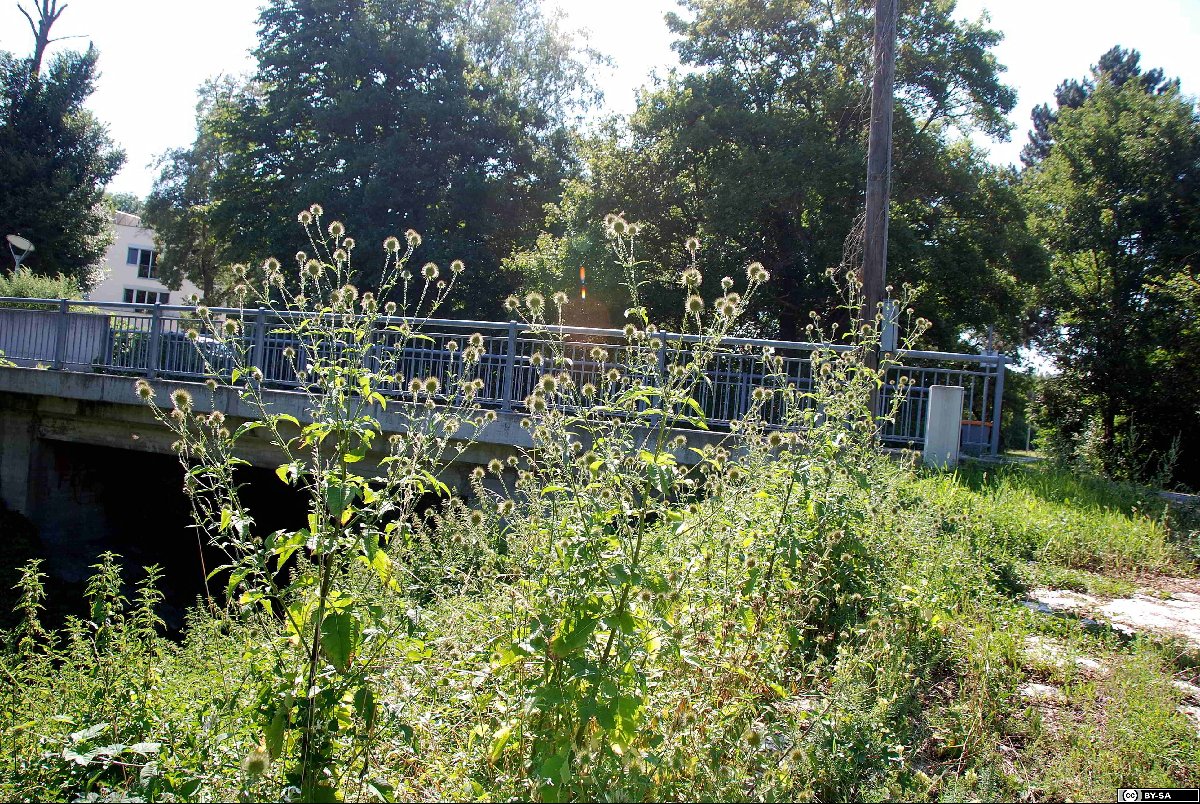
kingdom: Plantae
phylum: Tracheophyta
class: Magnoliopsida
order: Dipsacales
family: Caprifoliaceae
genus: Dipsacus
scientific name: Dipsacus strigosus
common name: Yellow-flowered teasel
